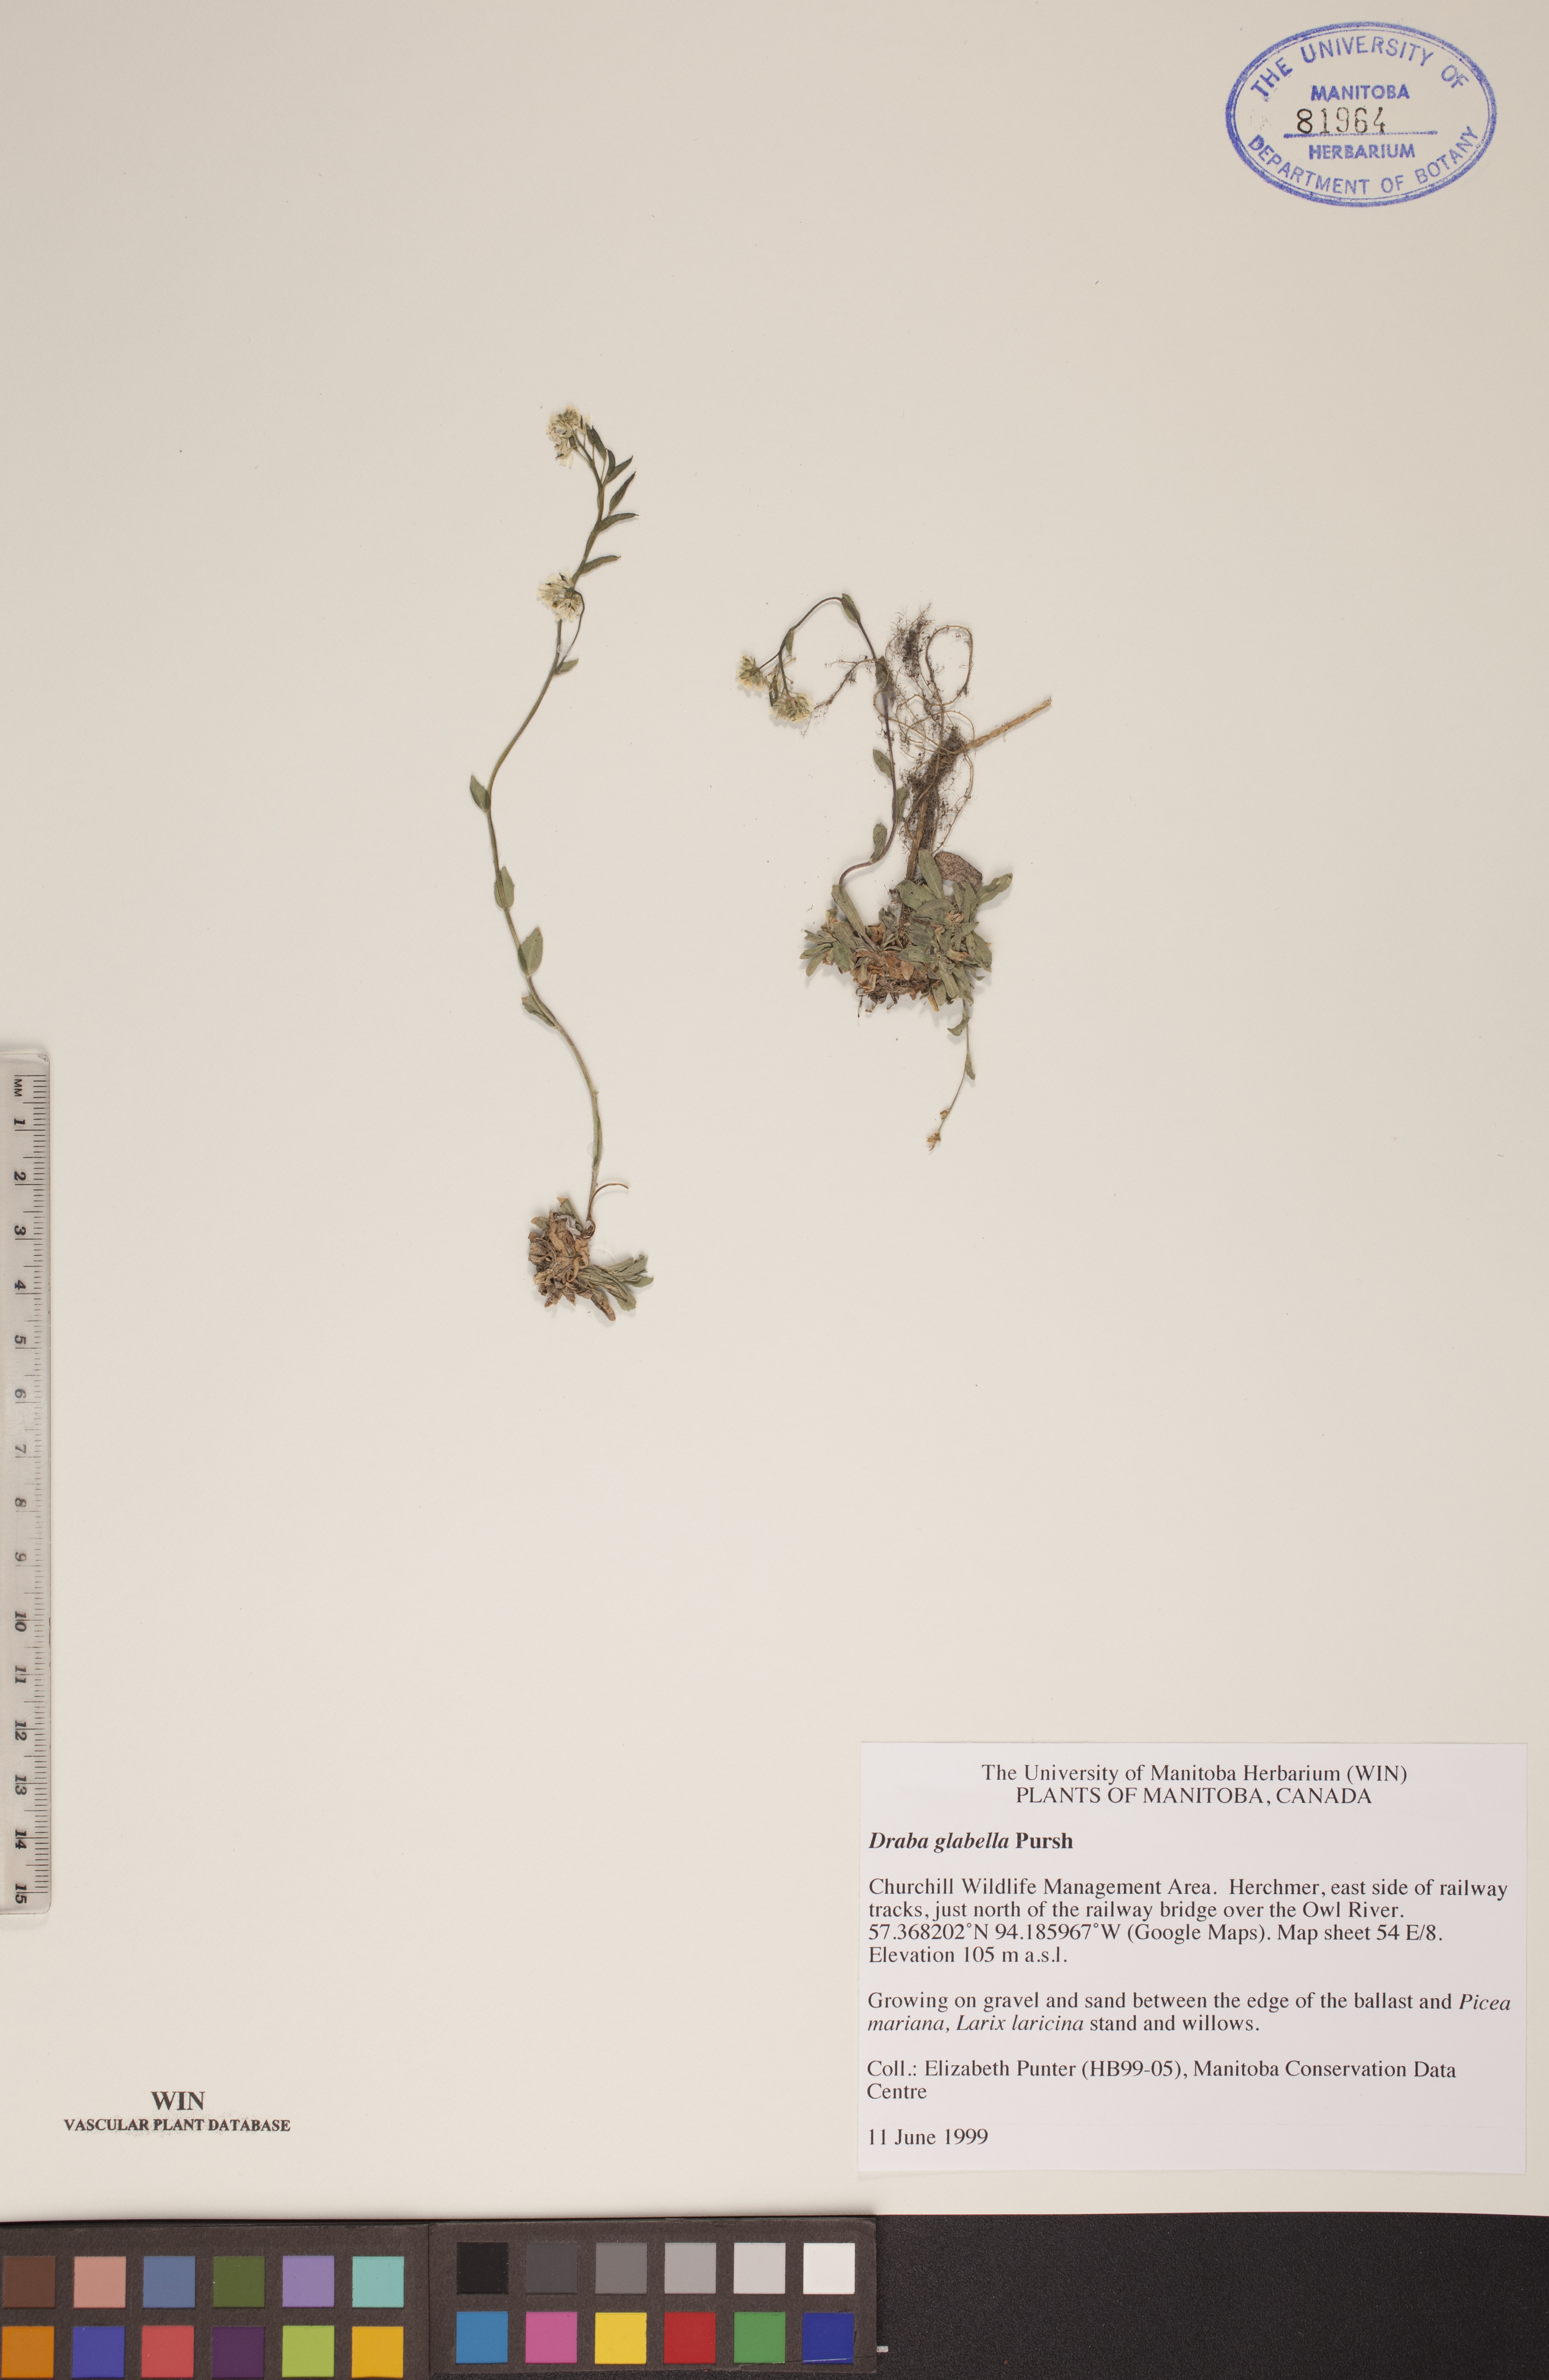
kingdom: Plantae
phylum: Tracheophyta
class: Magnoliopsida
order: Brassicales
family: Brassicaceae
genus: Draba
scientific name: Draba glabella
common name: Glaucous draba
